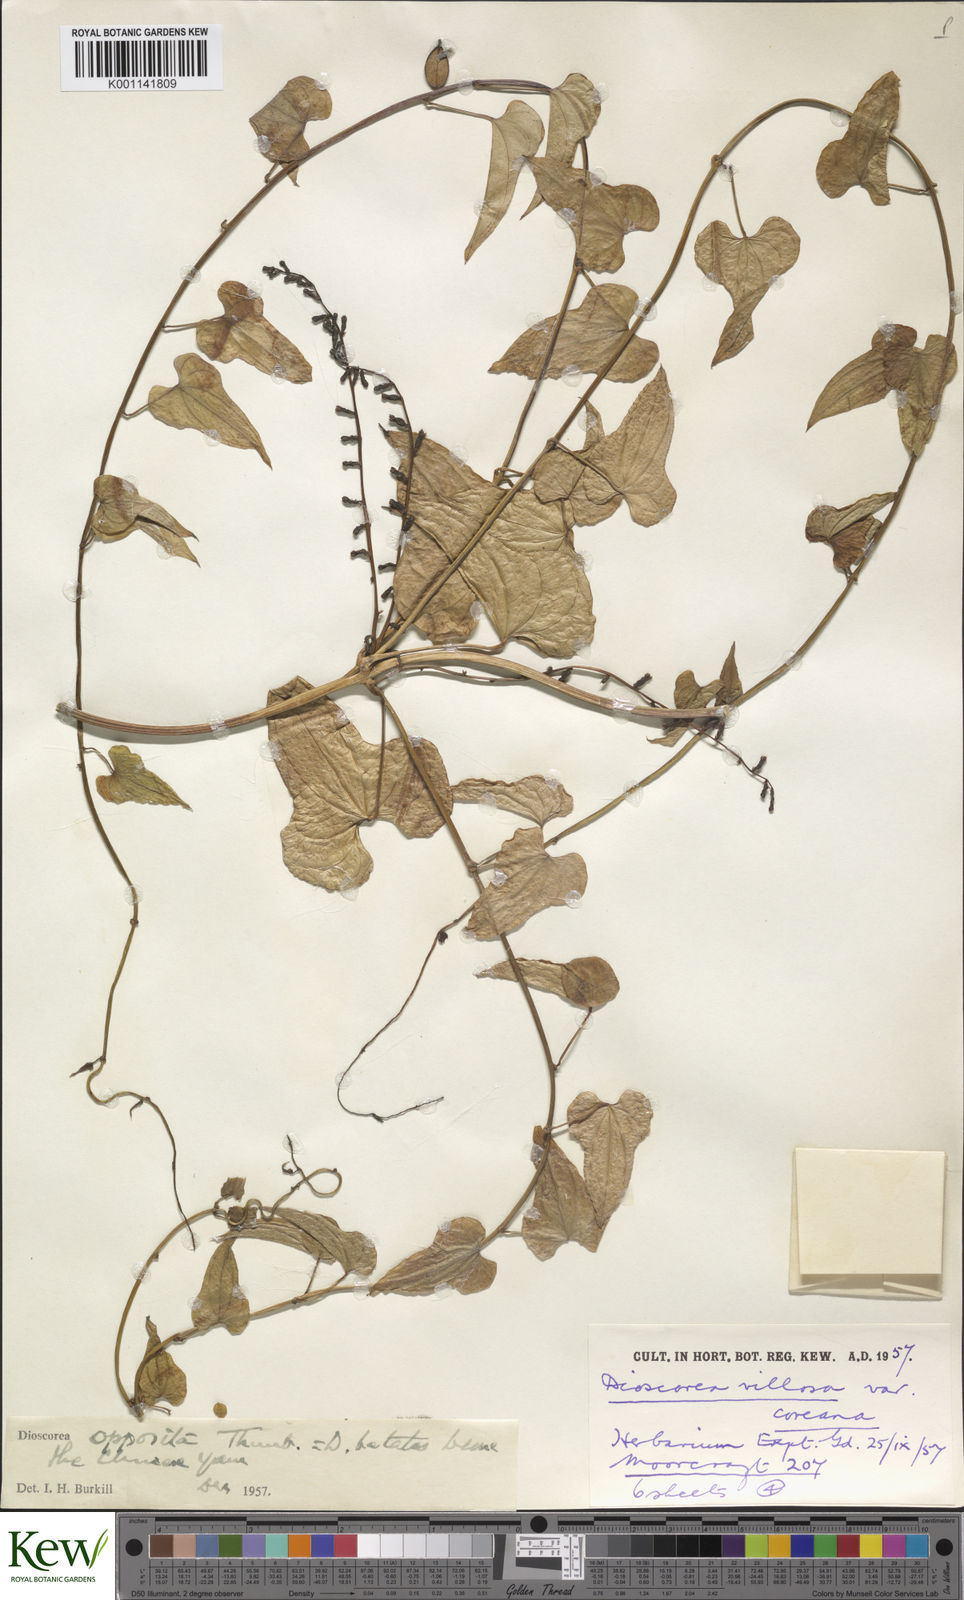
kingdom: Plantae
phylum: Tracheophyta
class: Liliopsida
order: Dioscoreales
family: Dioscoreaceae
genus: Dioscorea
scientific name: Dioscorea oppositifolia
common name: Chinese yam
